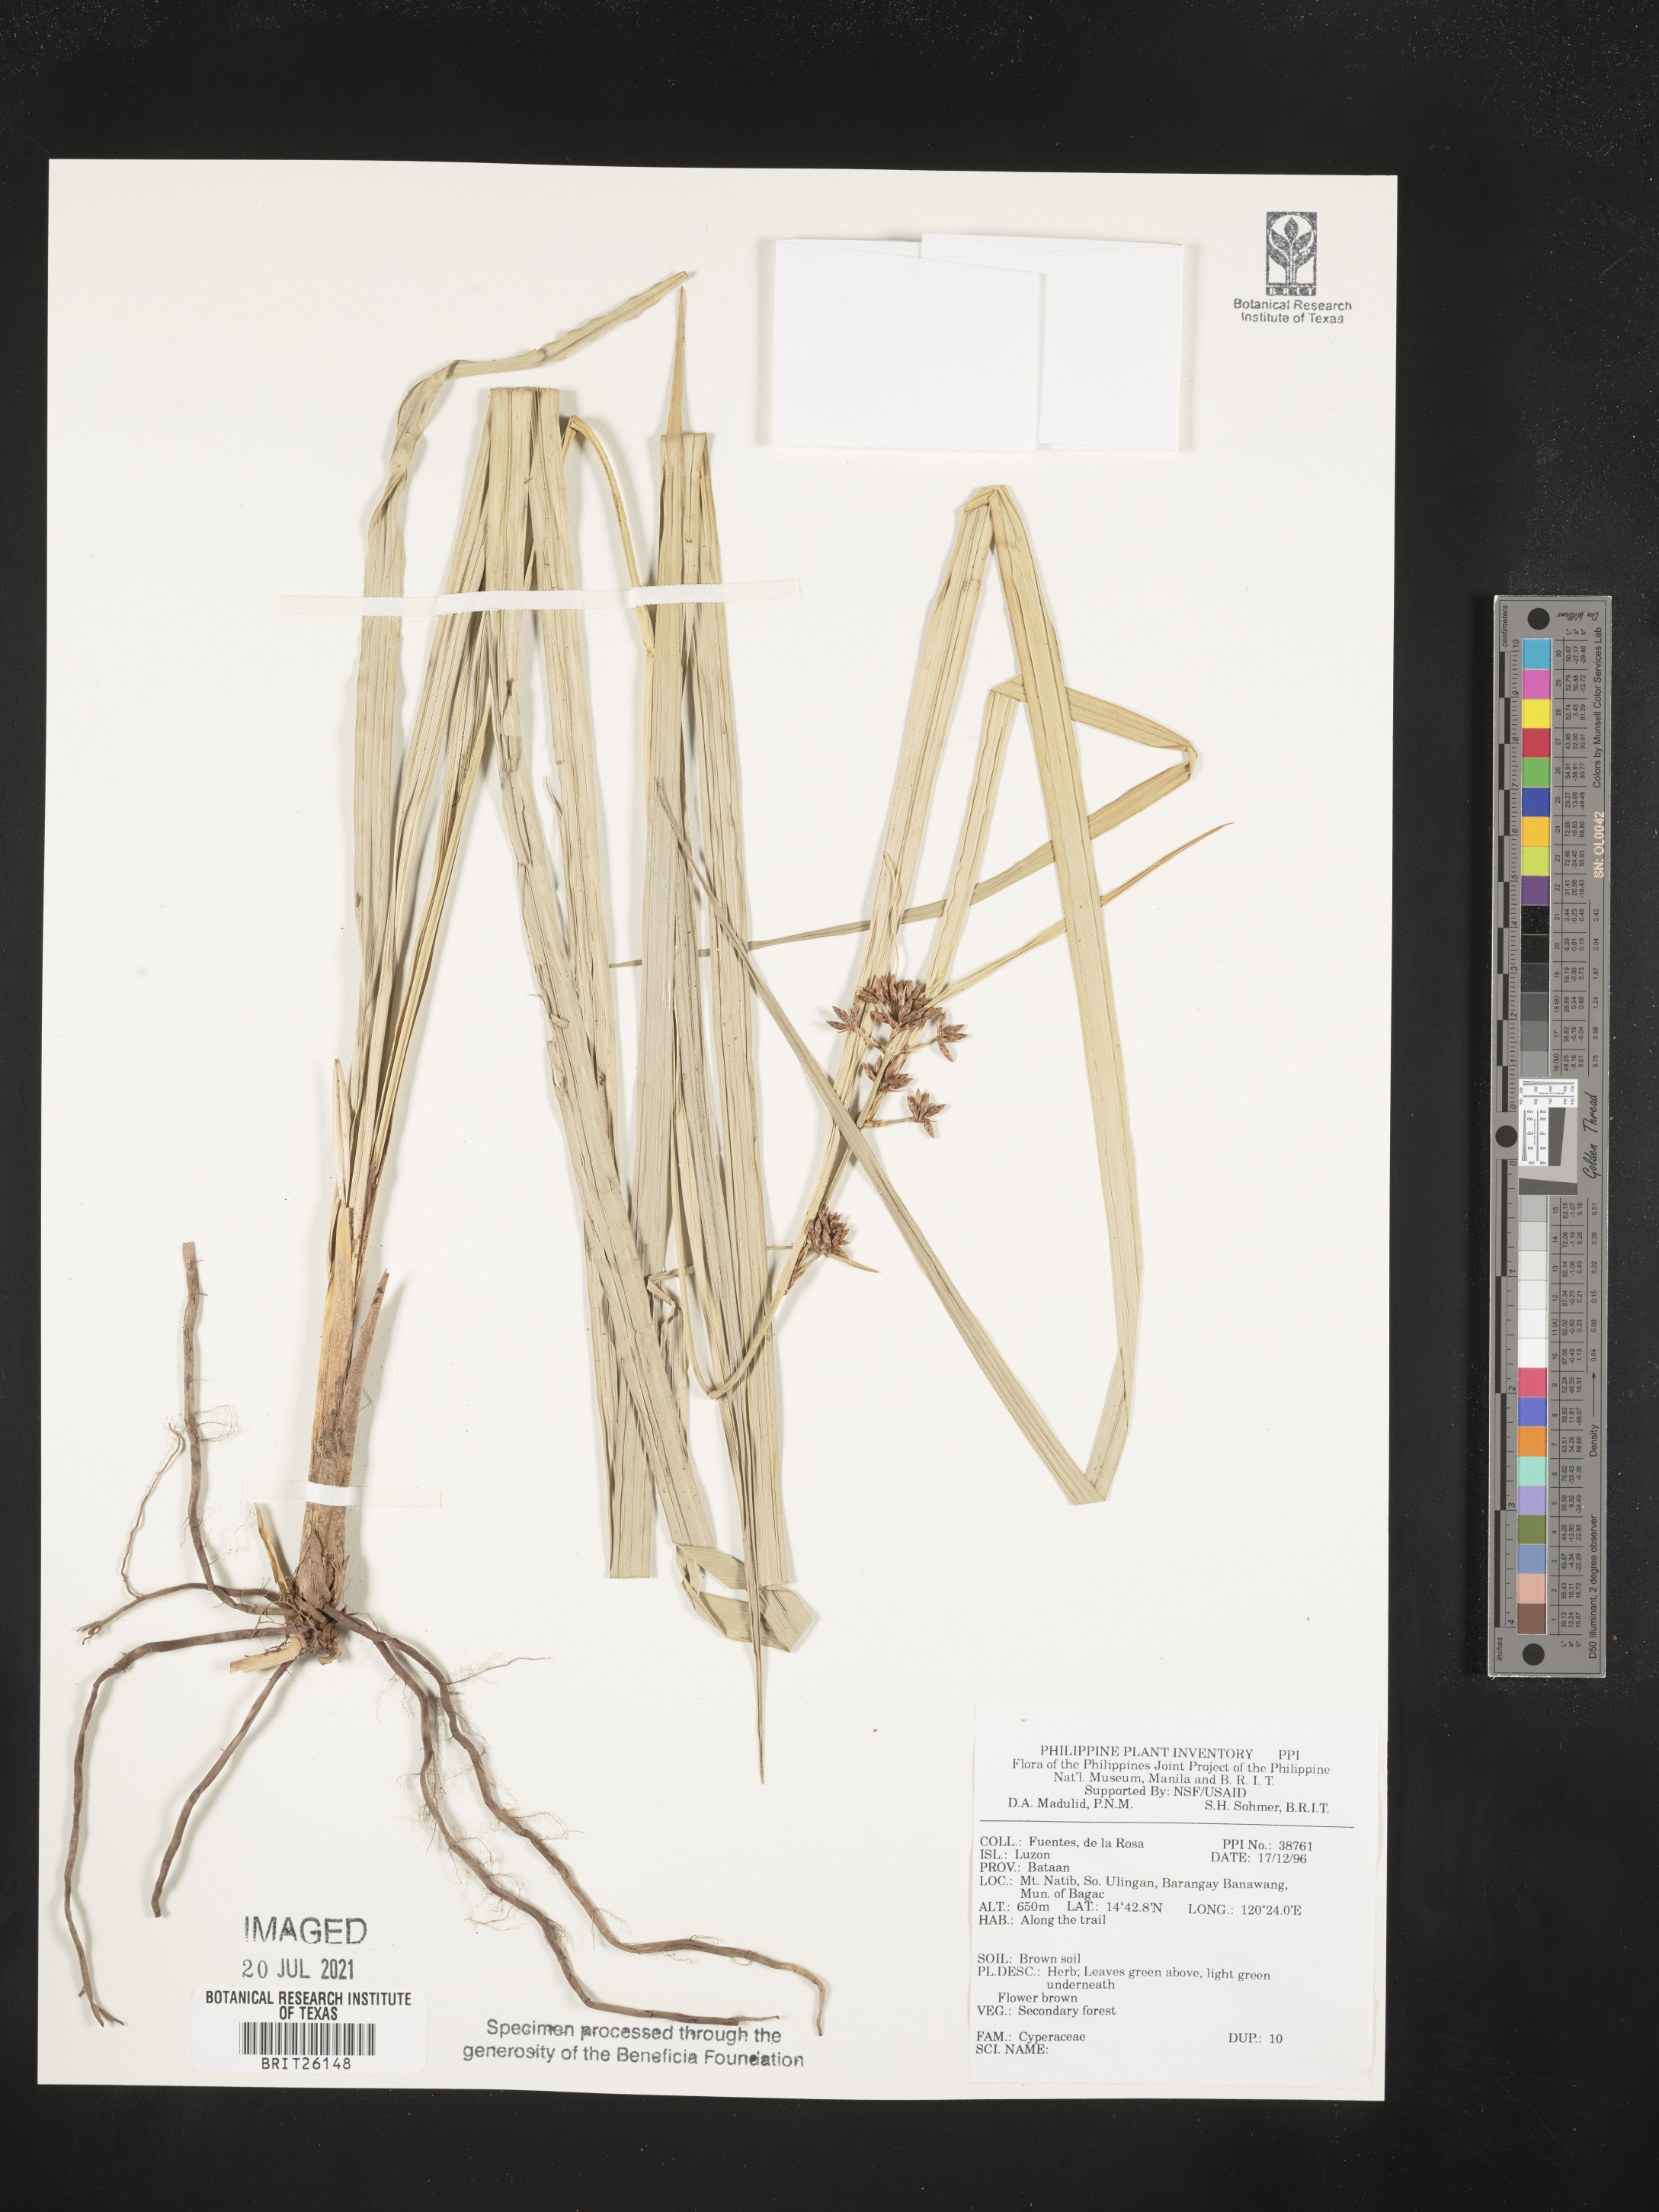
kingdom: Plantae
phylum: Tracheophyta
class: Liliopsida
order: Poales
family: Cyperaceae
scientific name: Cyperaceae
